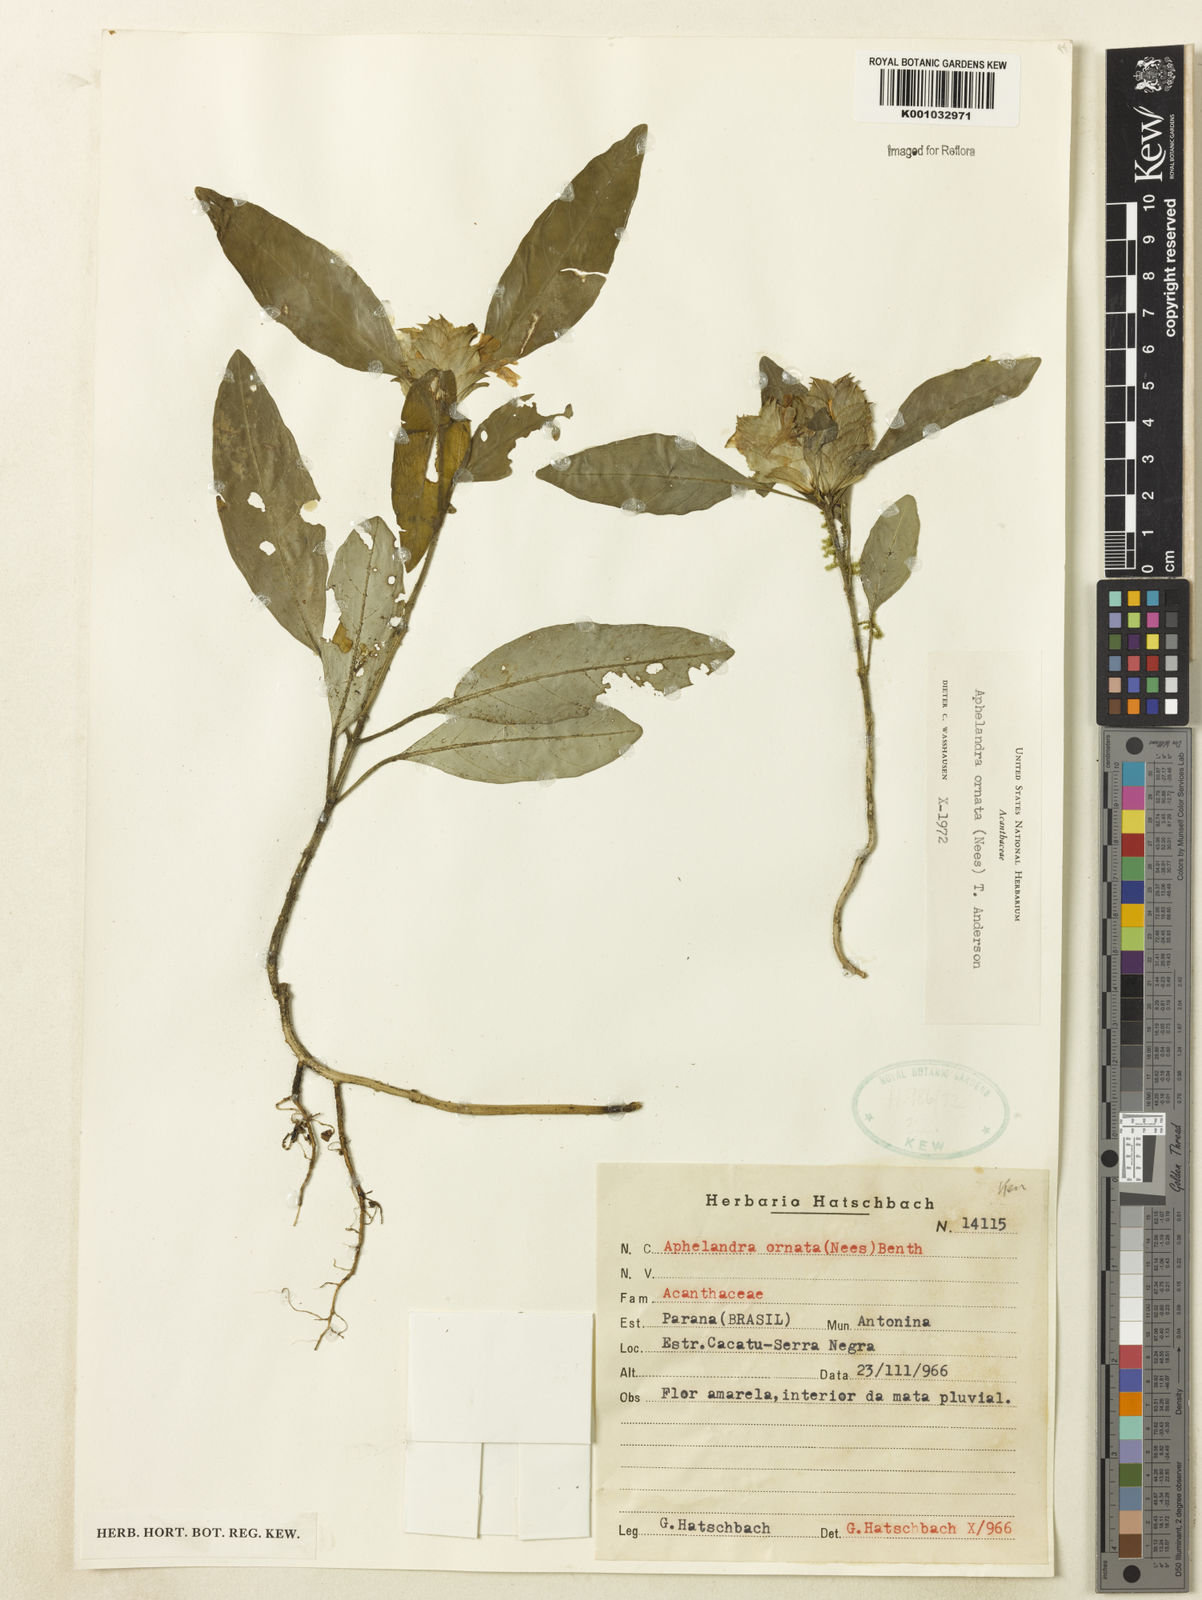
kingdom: Plantae
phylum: Tracheophyta
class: Magnoliopsida
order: Lamiales
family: Acanthaceae
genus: Aphelandra
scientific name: Aphelandra ornata
